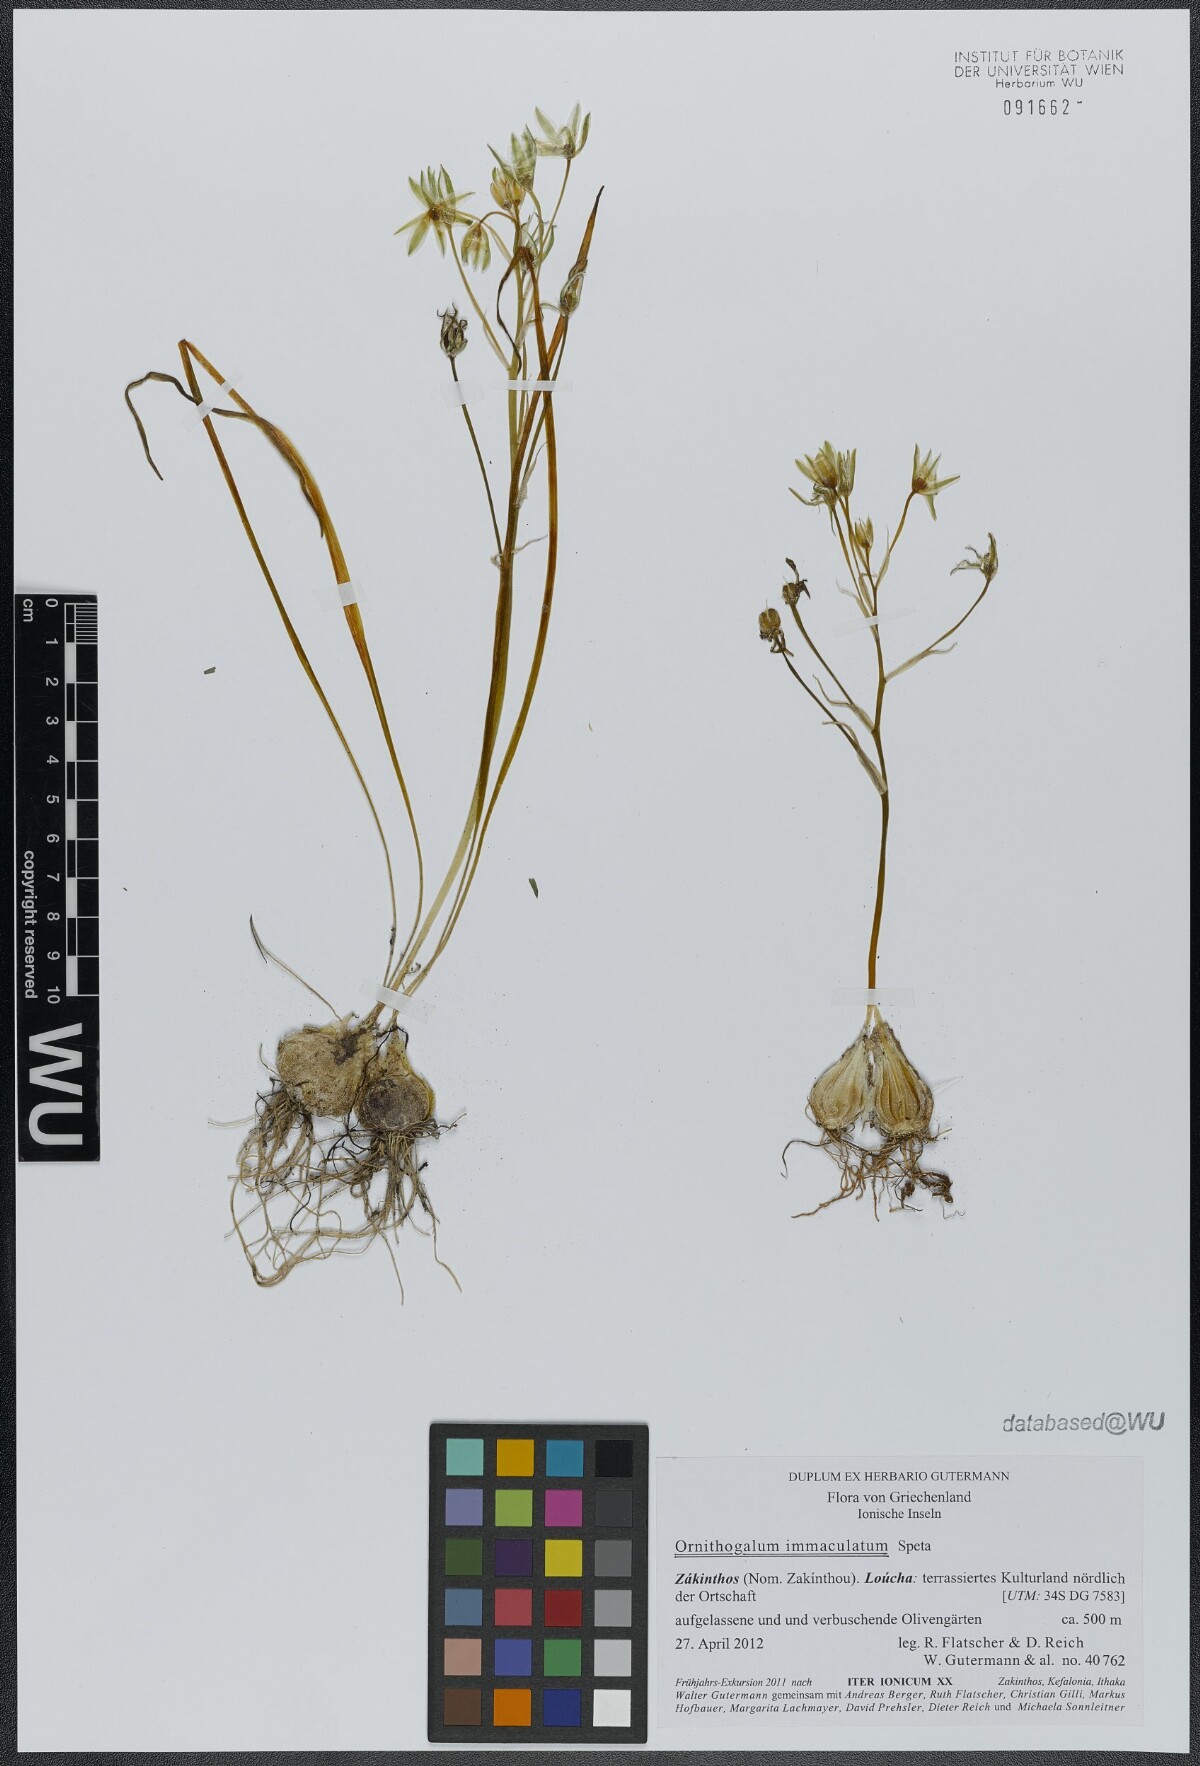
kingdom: Plantae
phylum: Tracheophyta
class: Liliopsida
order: Asparagales
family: Asparagaceae
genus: Ornithogalum
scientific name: Ornithogalum immaculatum
